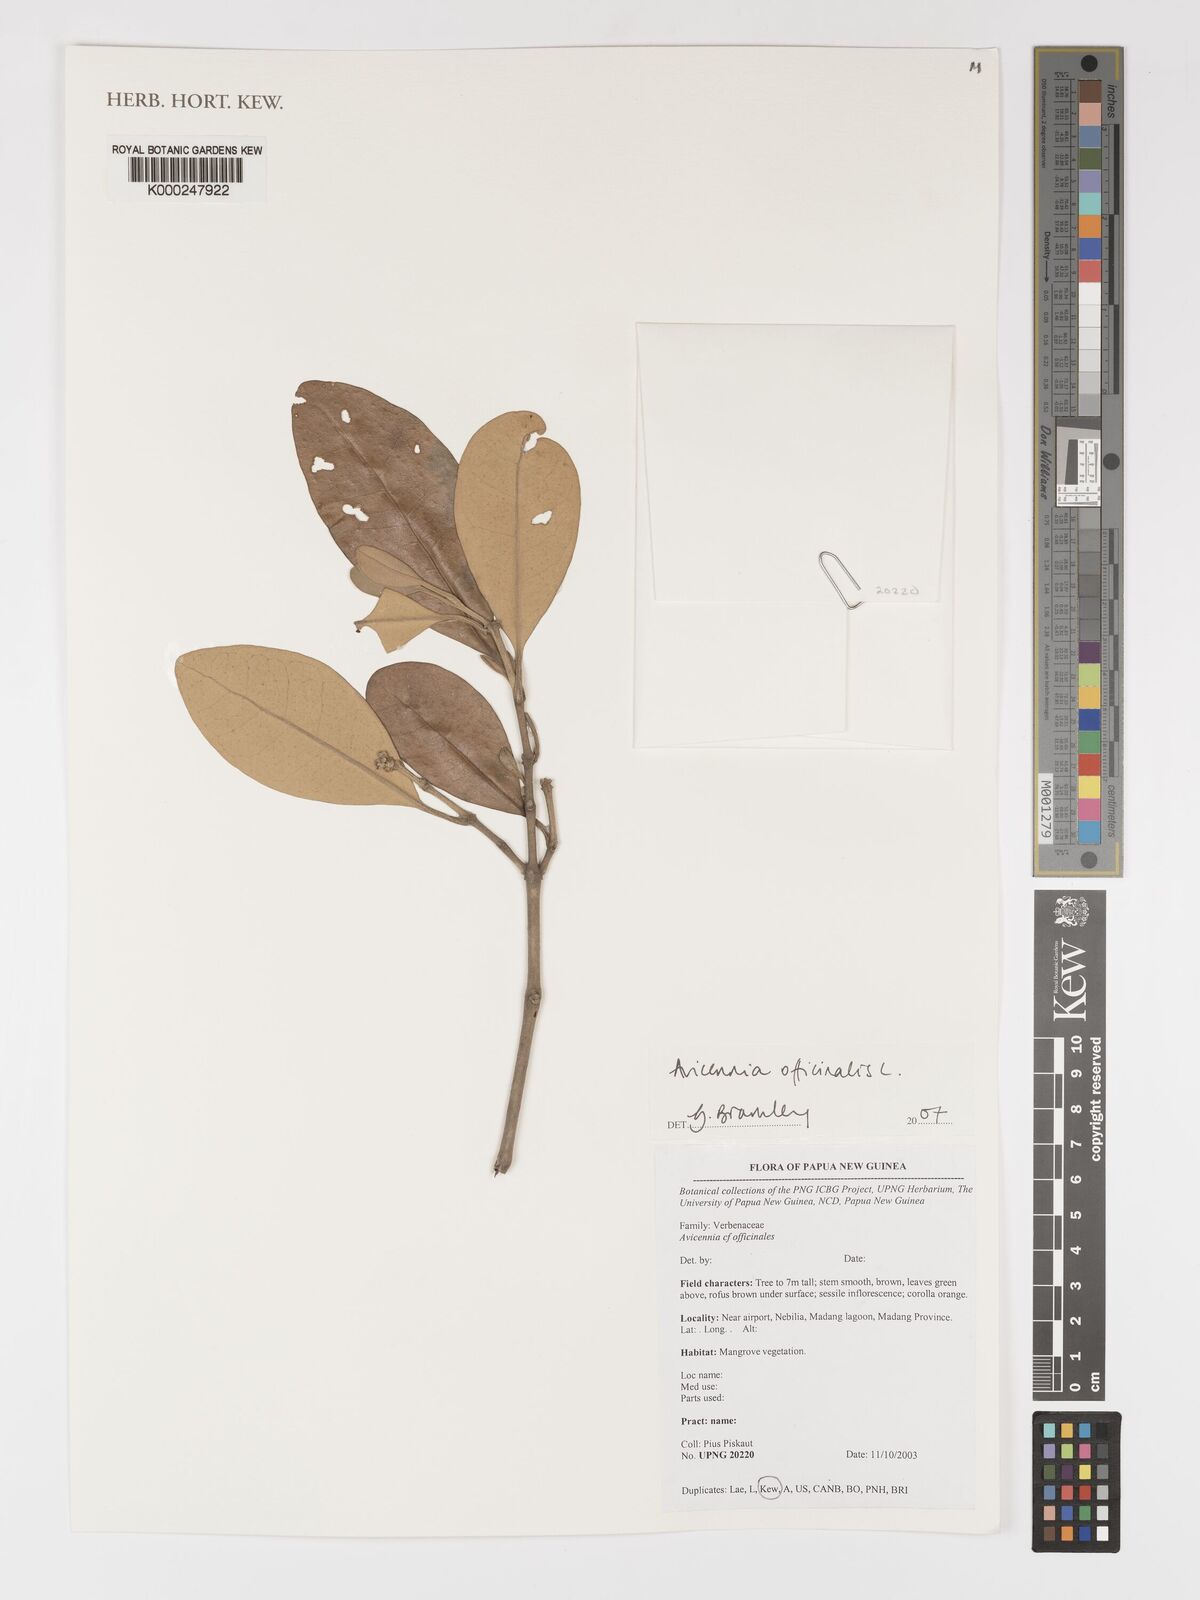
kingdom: Plantae
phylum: Tracheophyta
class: Magnoliopsida
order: Lamiales
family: Acanthaceae
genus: Avicennia
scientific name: Avicennia officinalis
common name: Baen
